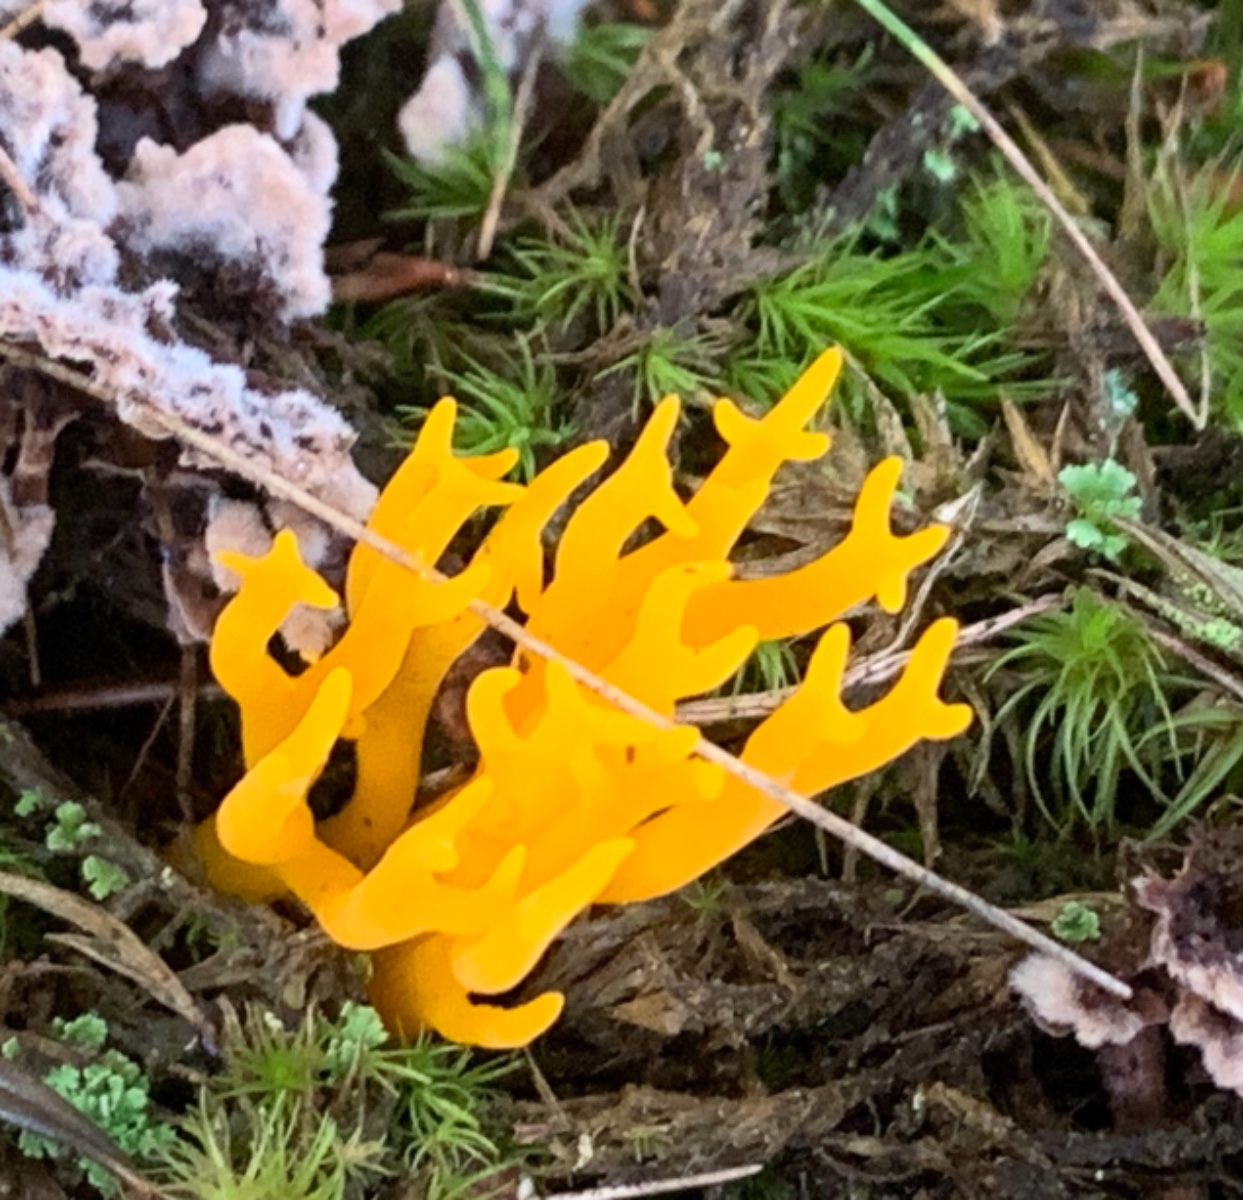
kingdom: Fungi
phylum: Basidiomycota
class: Dacrymycetes
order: Dacrymycetales
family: Dacrymycetaceae
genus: Calocera
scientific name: Calocera viscosa
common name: almindelig guldgaffel
